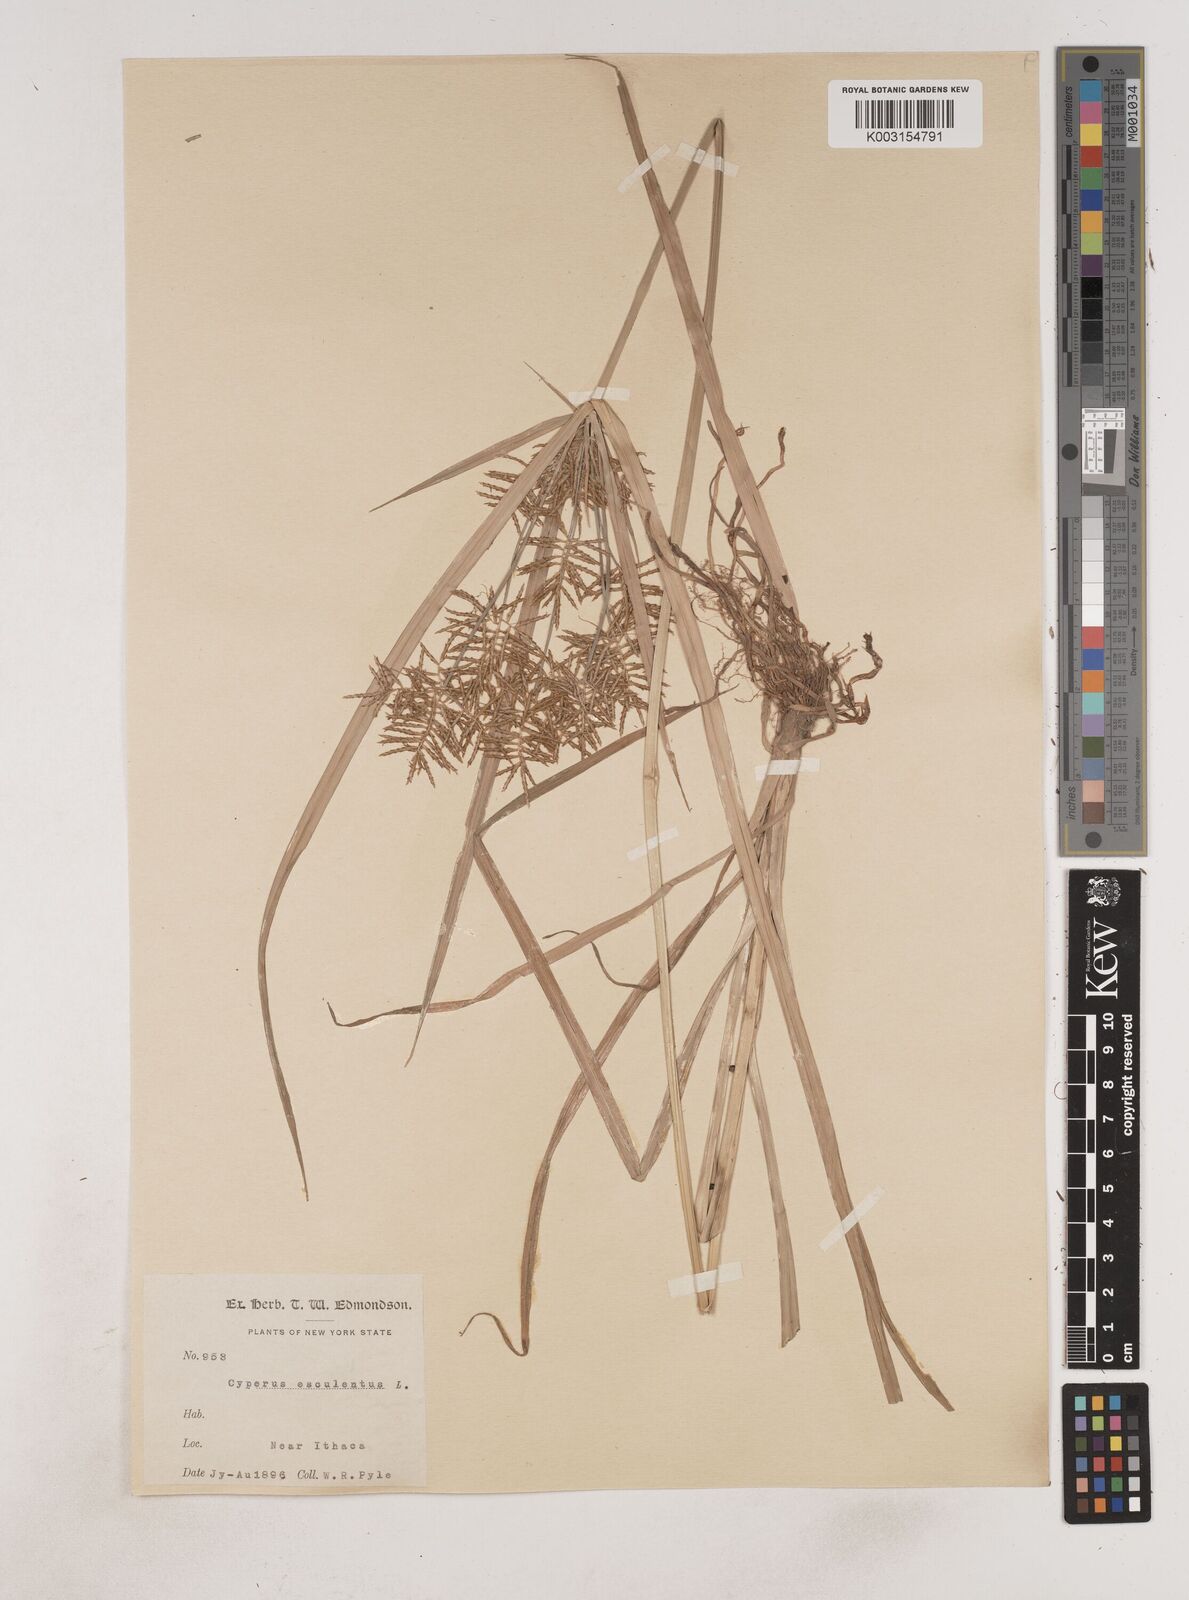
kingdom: Plantae
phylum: Tracheophyta
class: Liliopsida
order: Poales
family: Cyperaceae
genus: Cyperus
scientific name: Cyperus esculentus
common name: Yellow nutsedge
